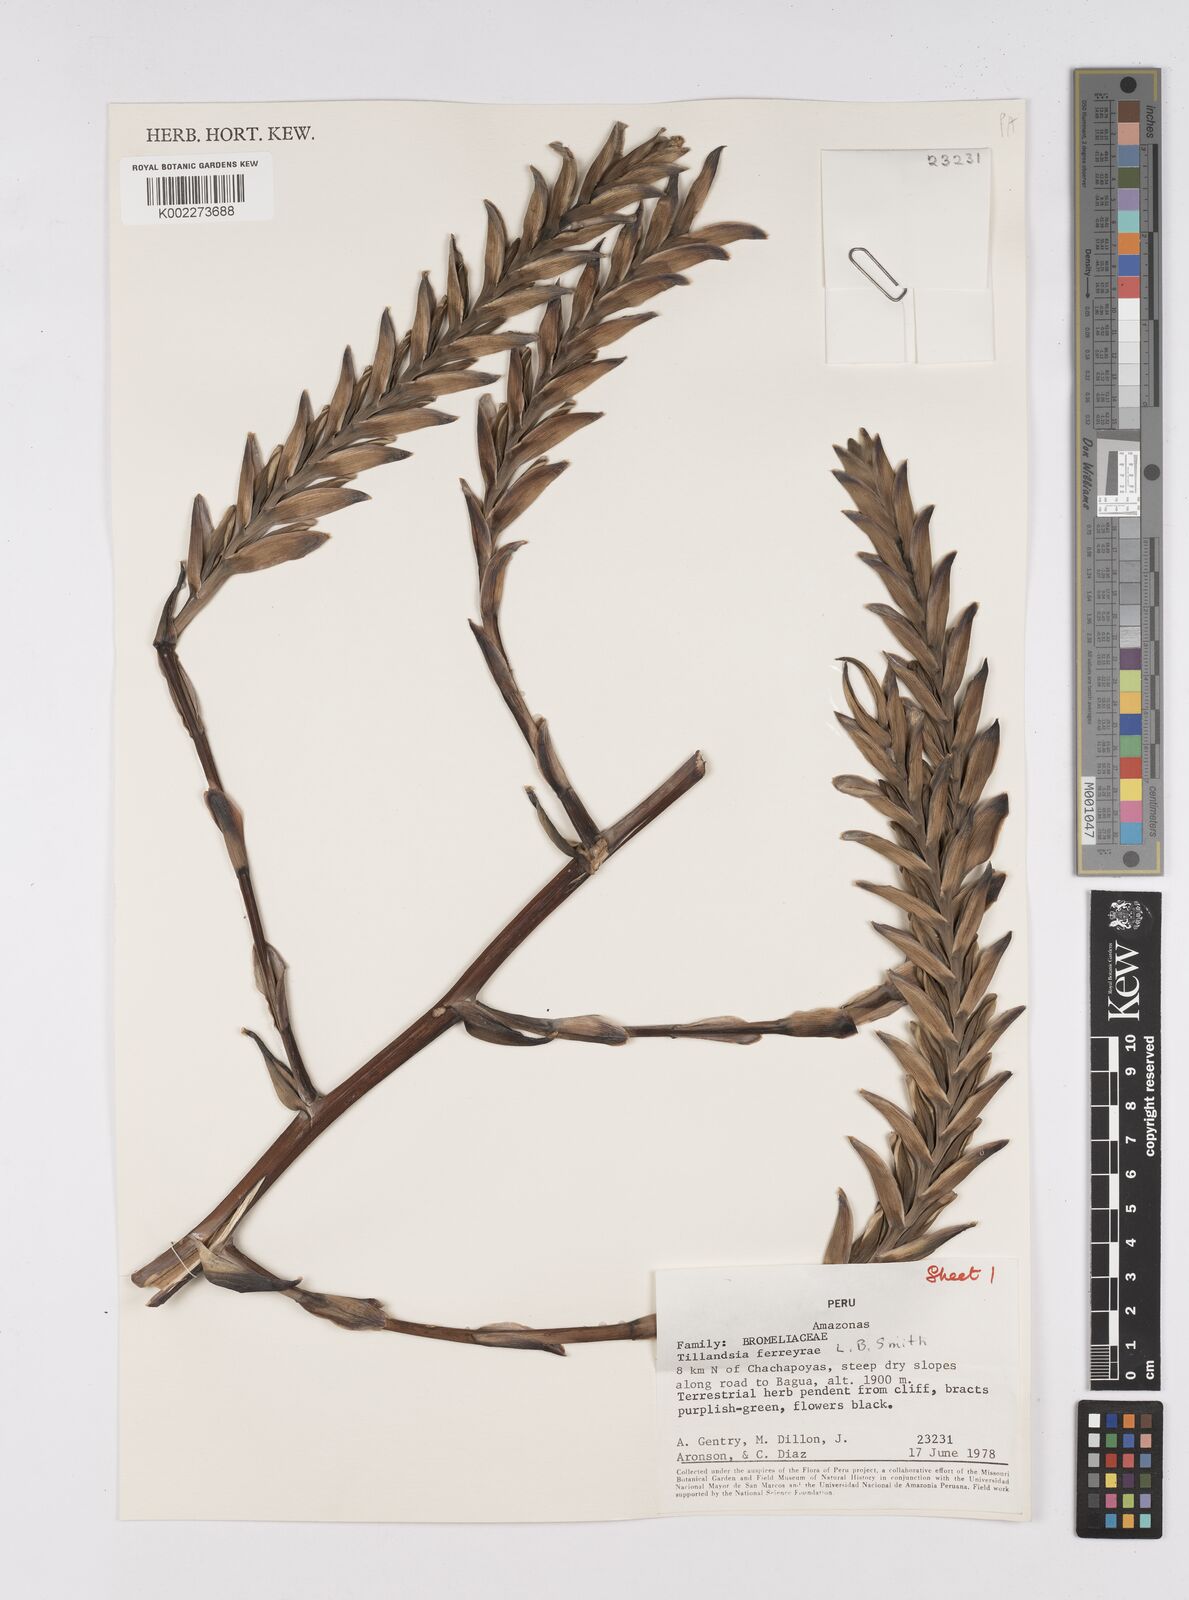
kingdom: Plantae
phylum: Tracheophyta
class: Liliopsida
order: Poales
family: Bromeliaceae
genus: Tillandsia
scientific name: Tillandsia ferreyrae
